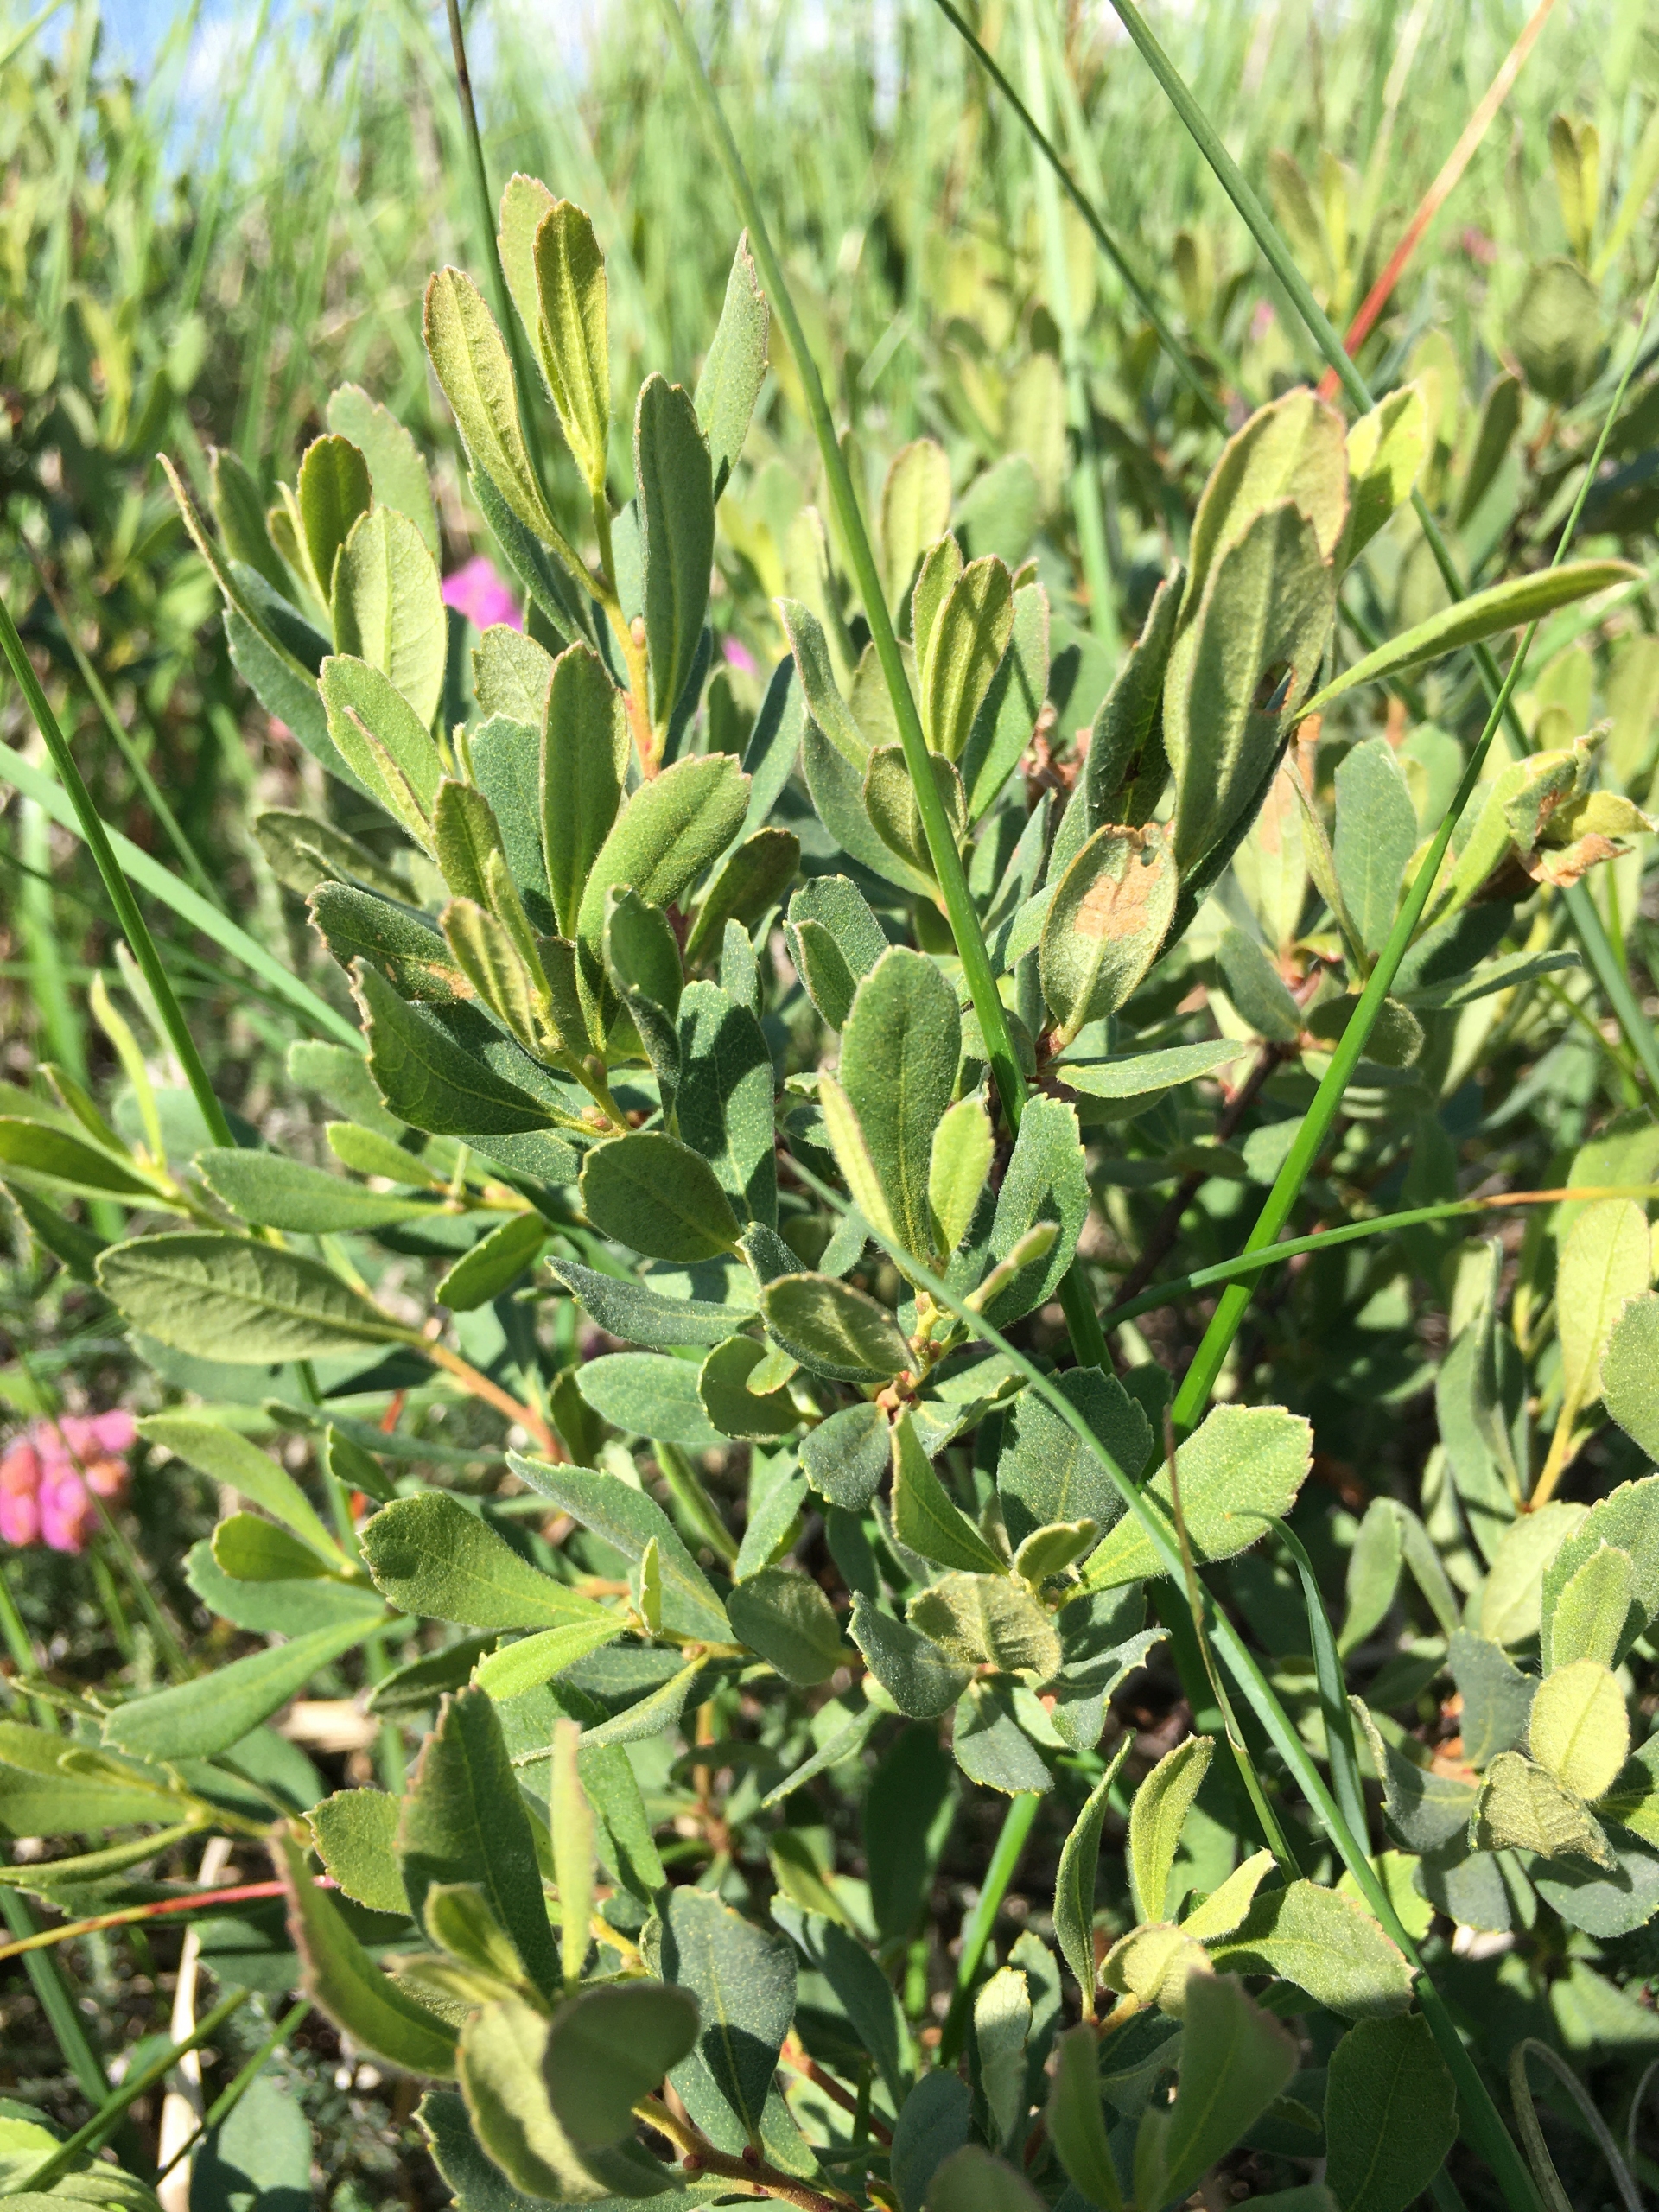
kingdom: Plantae
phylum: Tracheophyta
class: Magnoliopsida
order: Fagales
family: Myricaceae
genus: Myrica
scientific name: Myrica gale
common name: Pors
